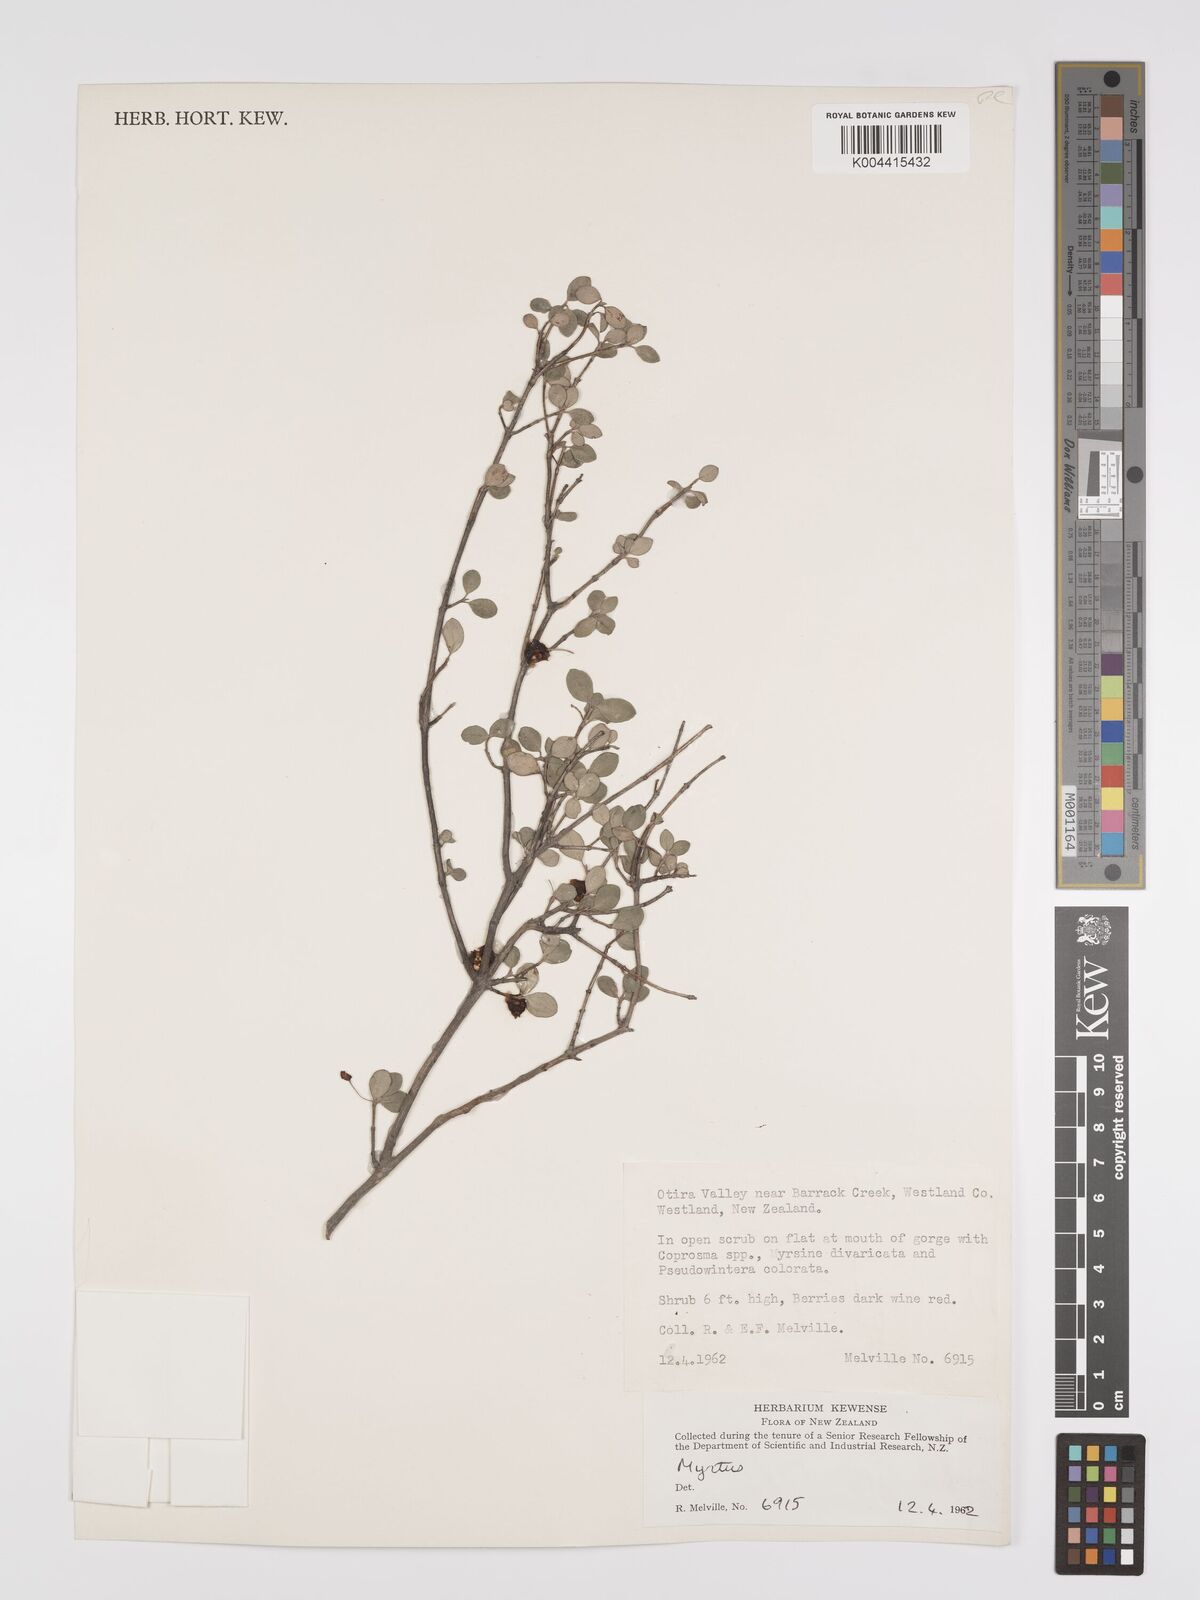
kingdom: Plantae
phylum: Tracheophyta
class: Magnoliopsida
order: Myrtales
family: Myrtaceae
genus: Neomyrtus
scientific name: Neomyrtus pedunculata
